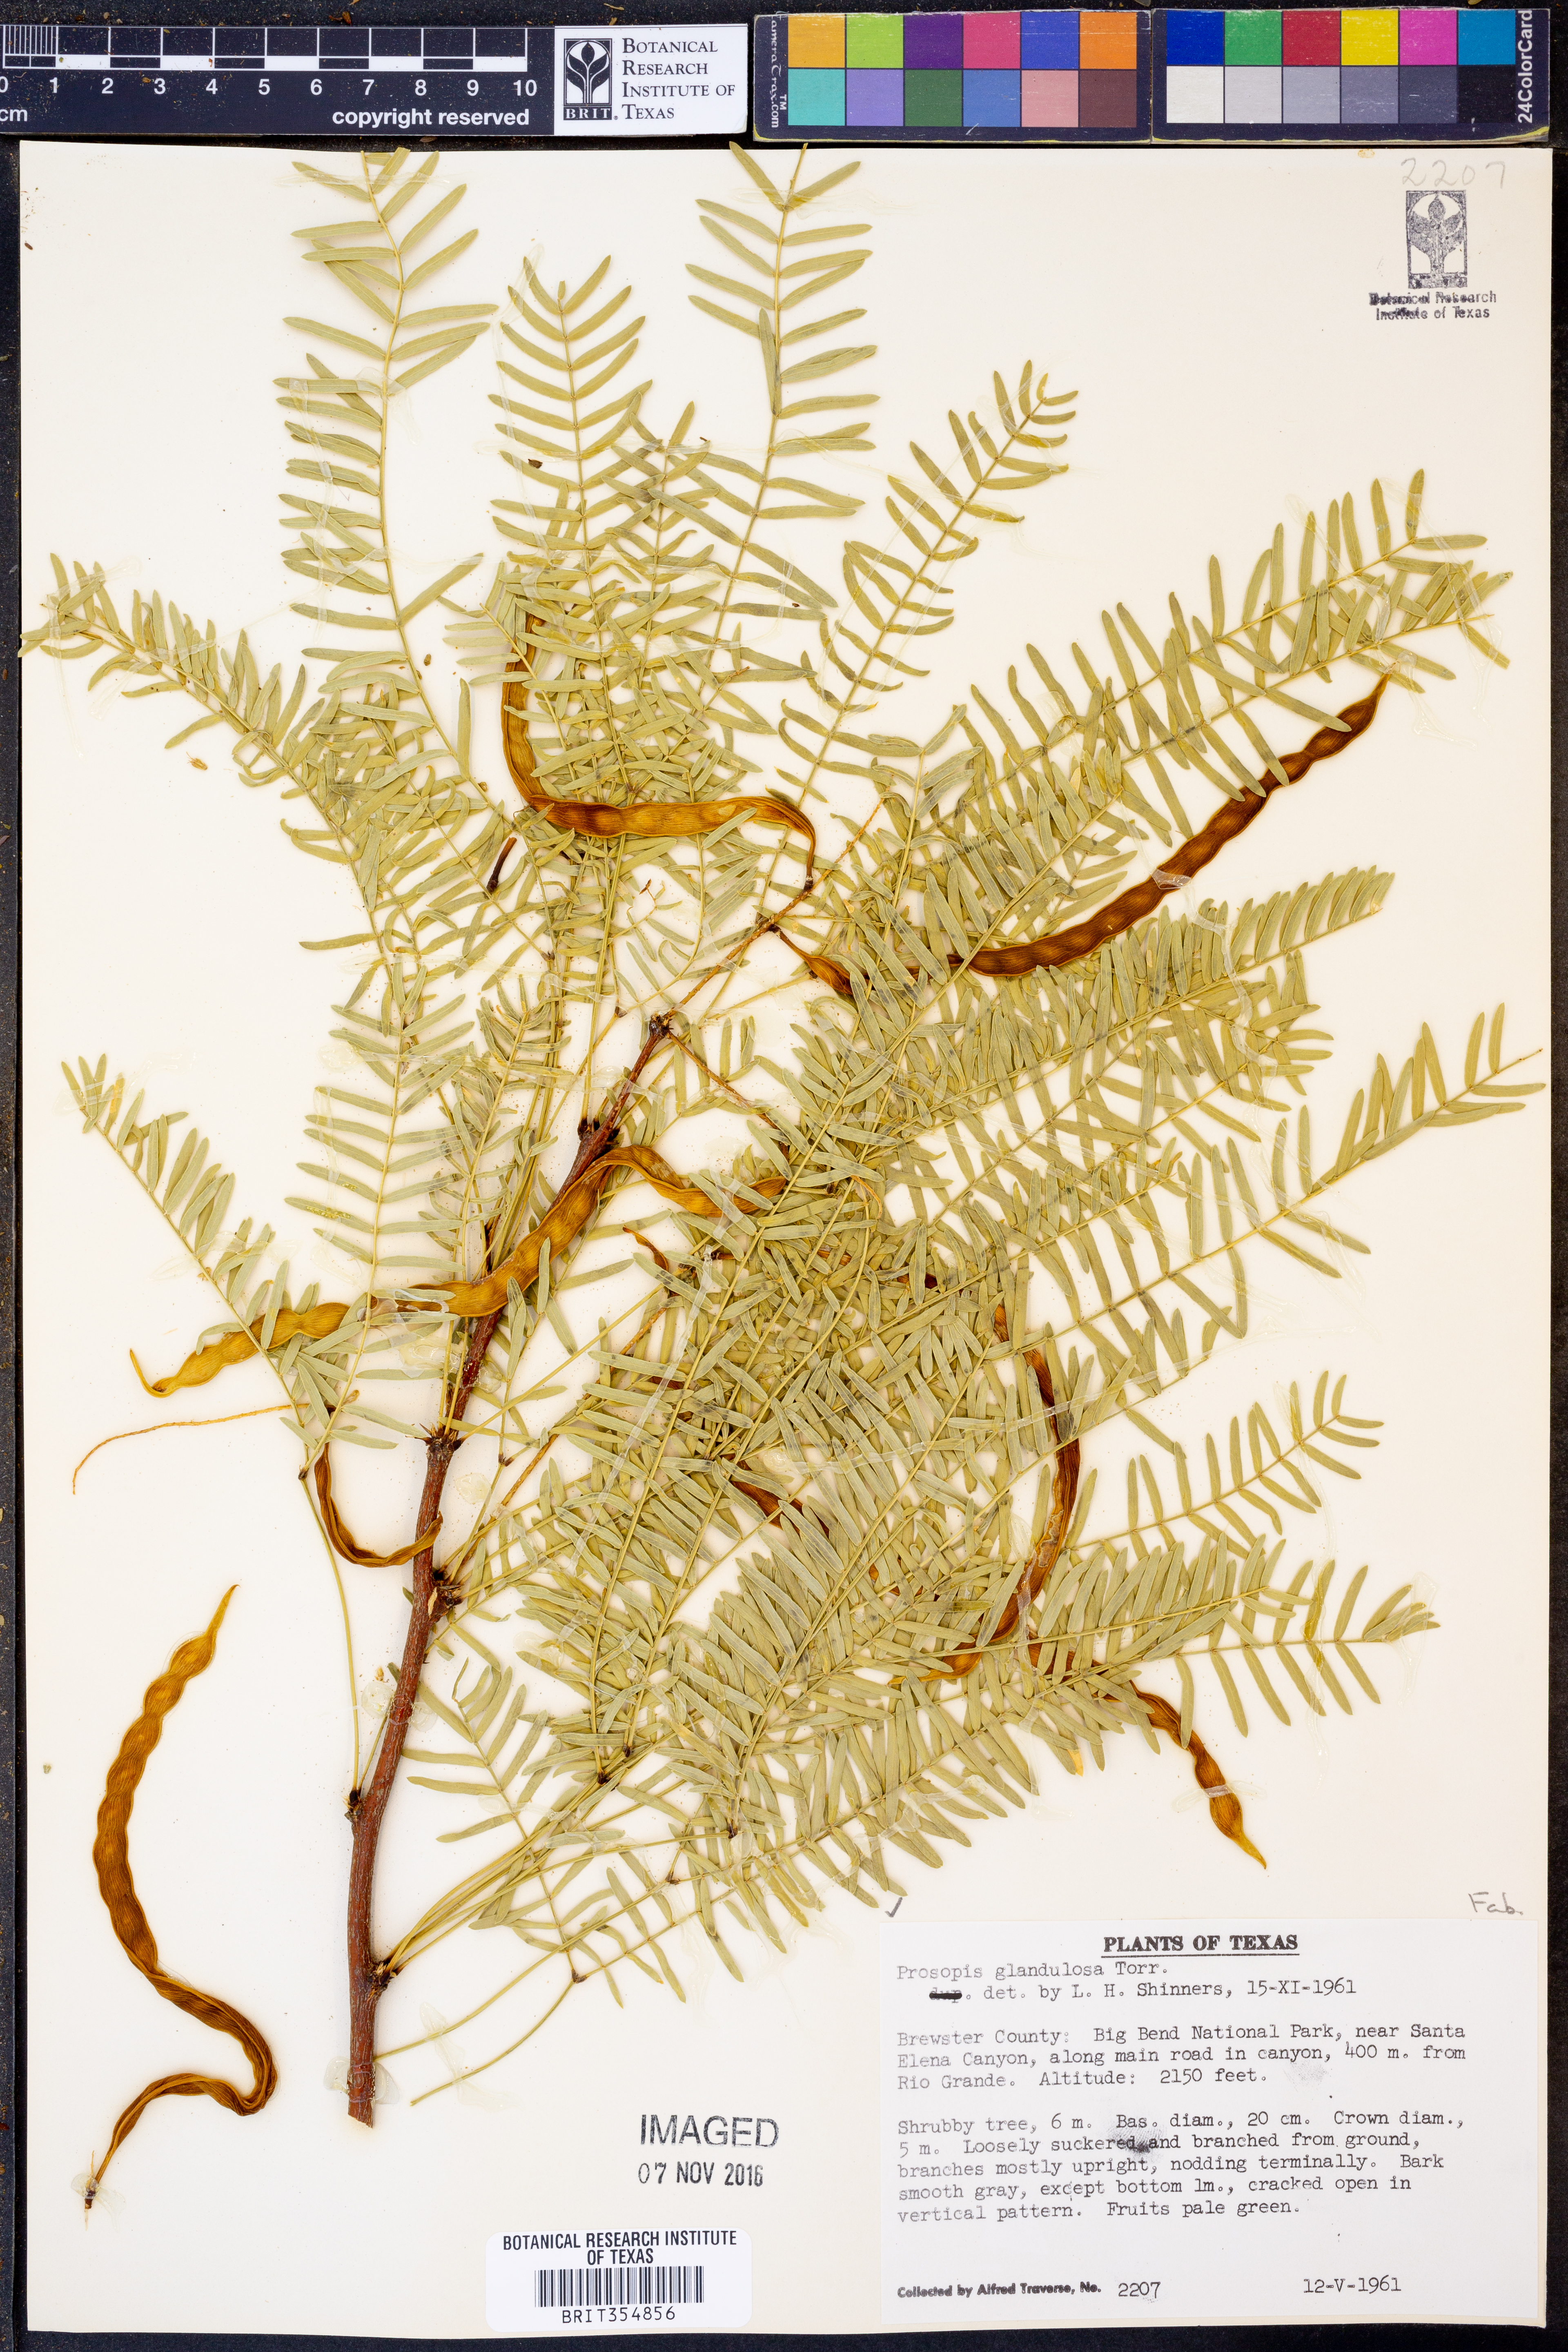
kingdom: Plantae
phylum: Tracheophyta
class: Magnoliopsida
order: Fabales
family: Fabaceae
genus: Prosopis
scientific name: Prosopis glandulosa
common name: Honey mesquite
